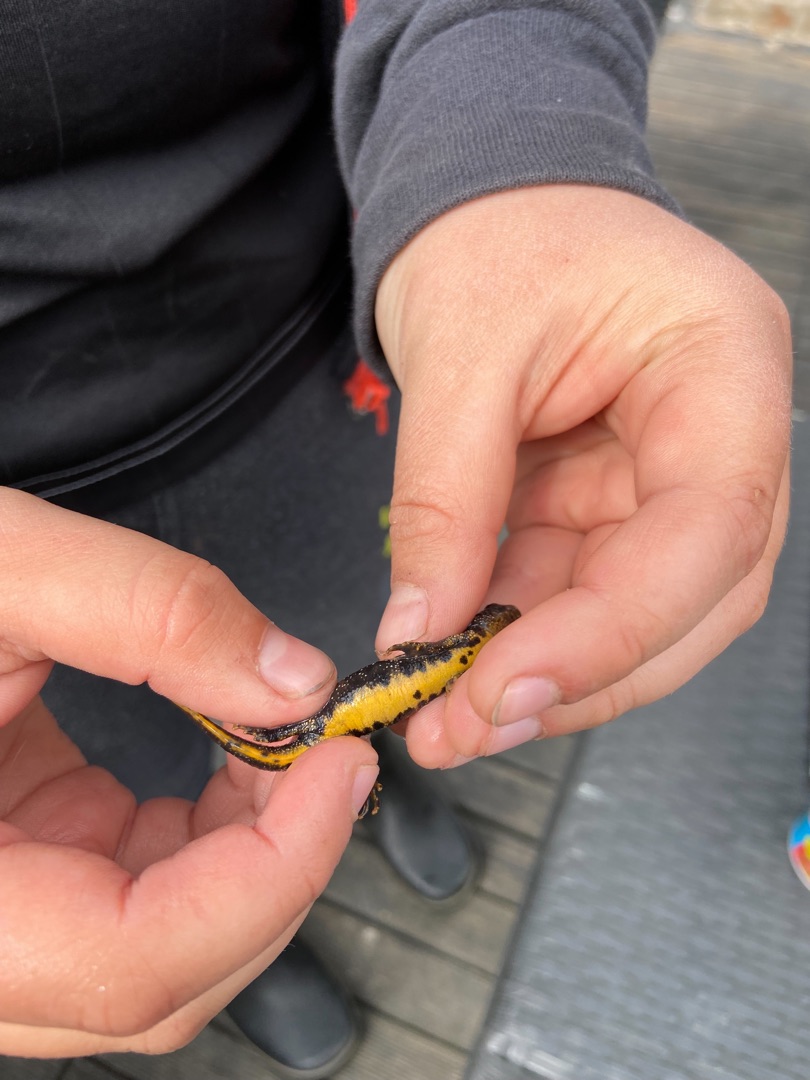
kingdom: Animalia
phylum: Chordata
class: Amphibia
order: Caudata
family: Salamandridae
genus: Triturus
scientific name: Triturus cristatus
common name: Stor vandsalamander
